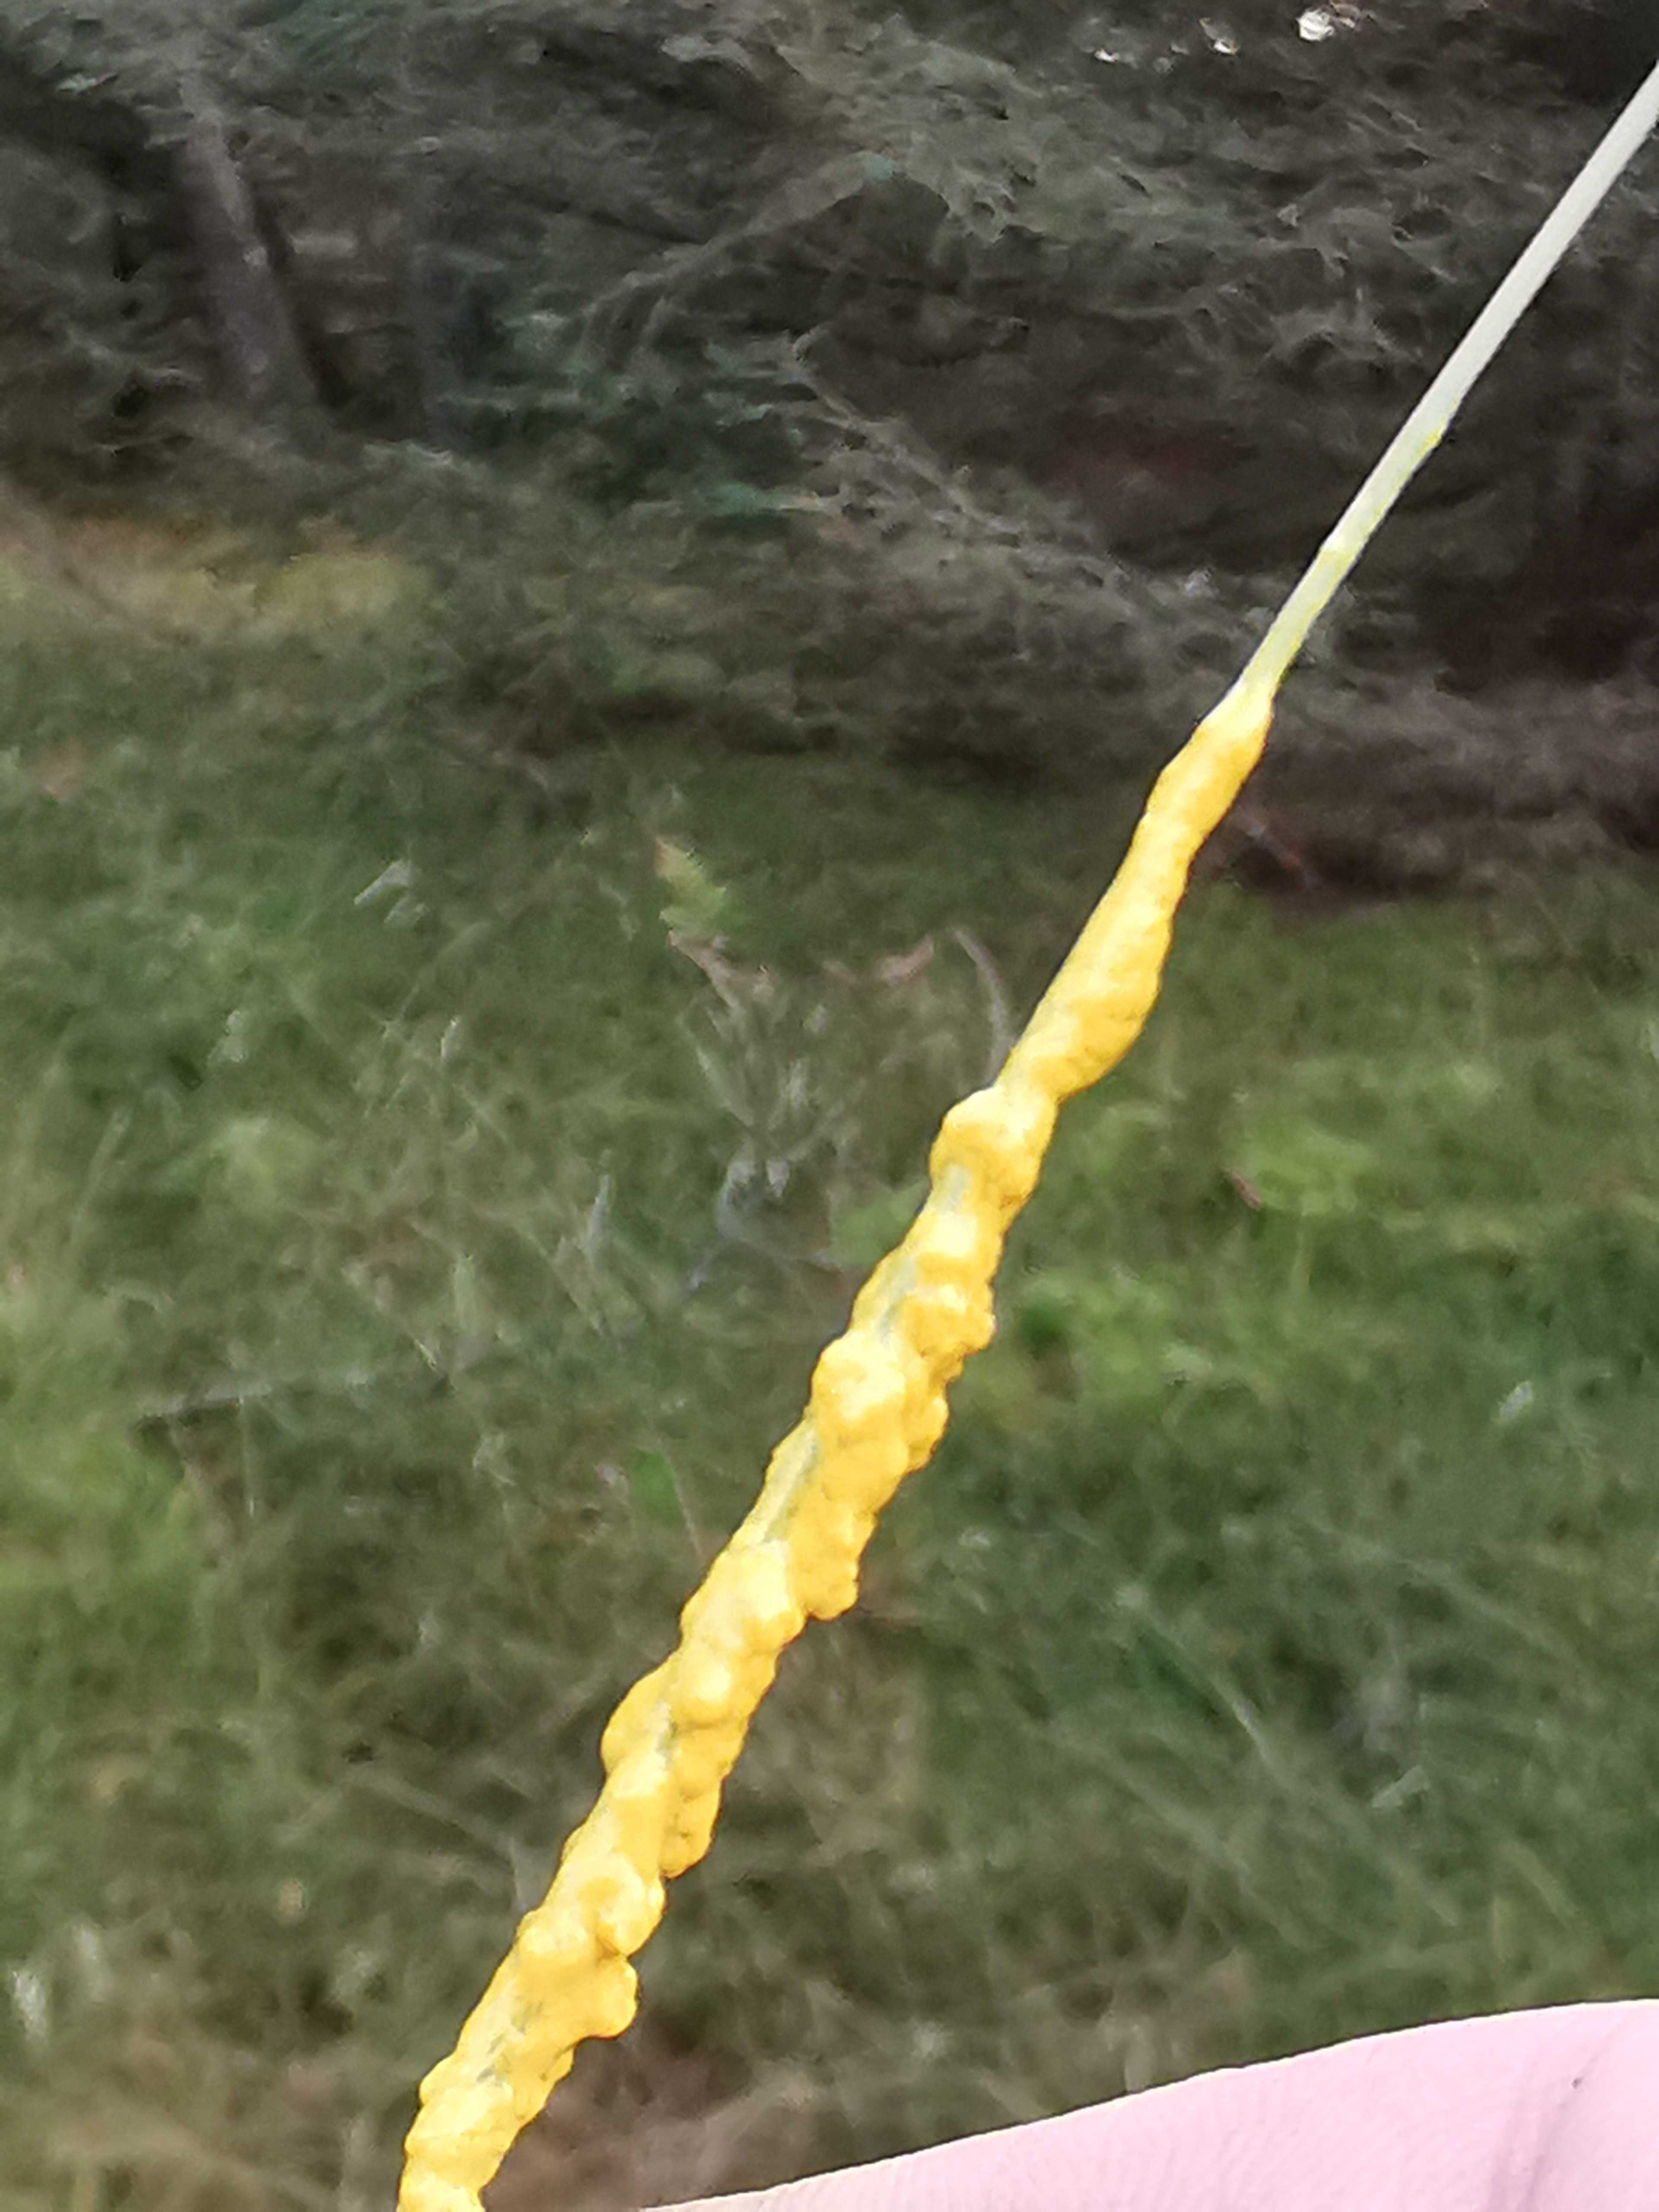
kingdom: Protozoa
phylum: Mycetozoa
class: Myxomycetes
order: Physarales
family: Physaraceae
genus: Leocarpus
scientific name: Leocarpus fragilis
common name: poleret glatfrø
